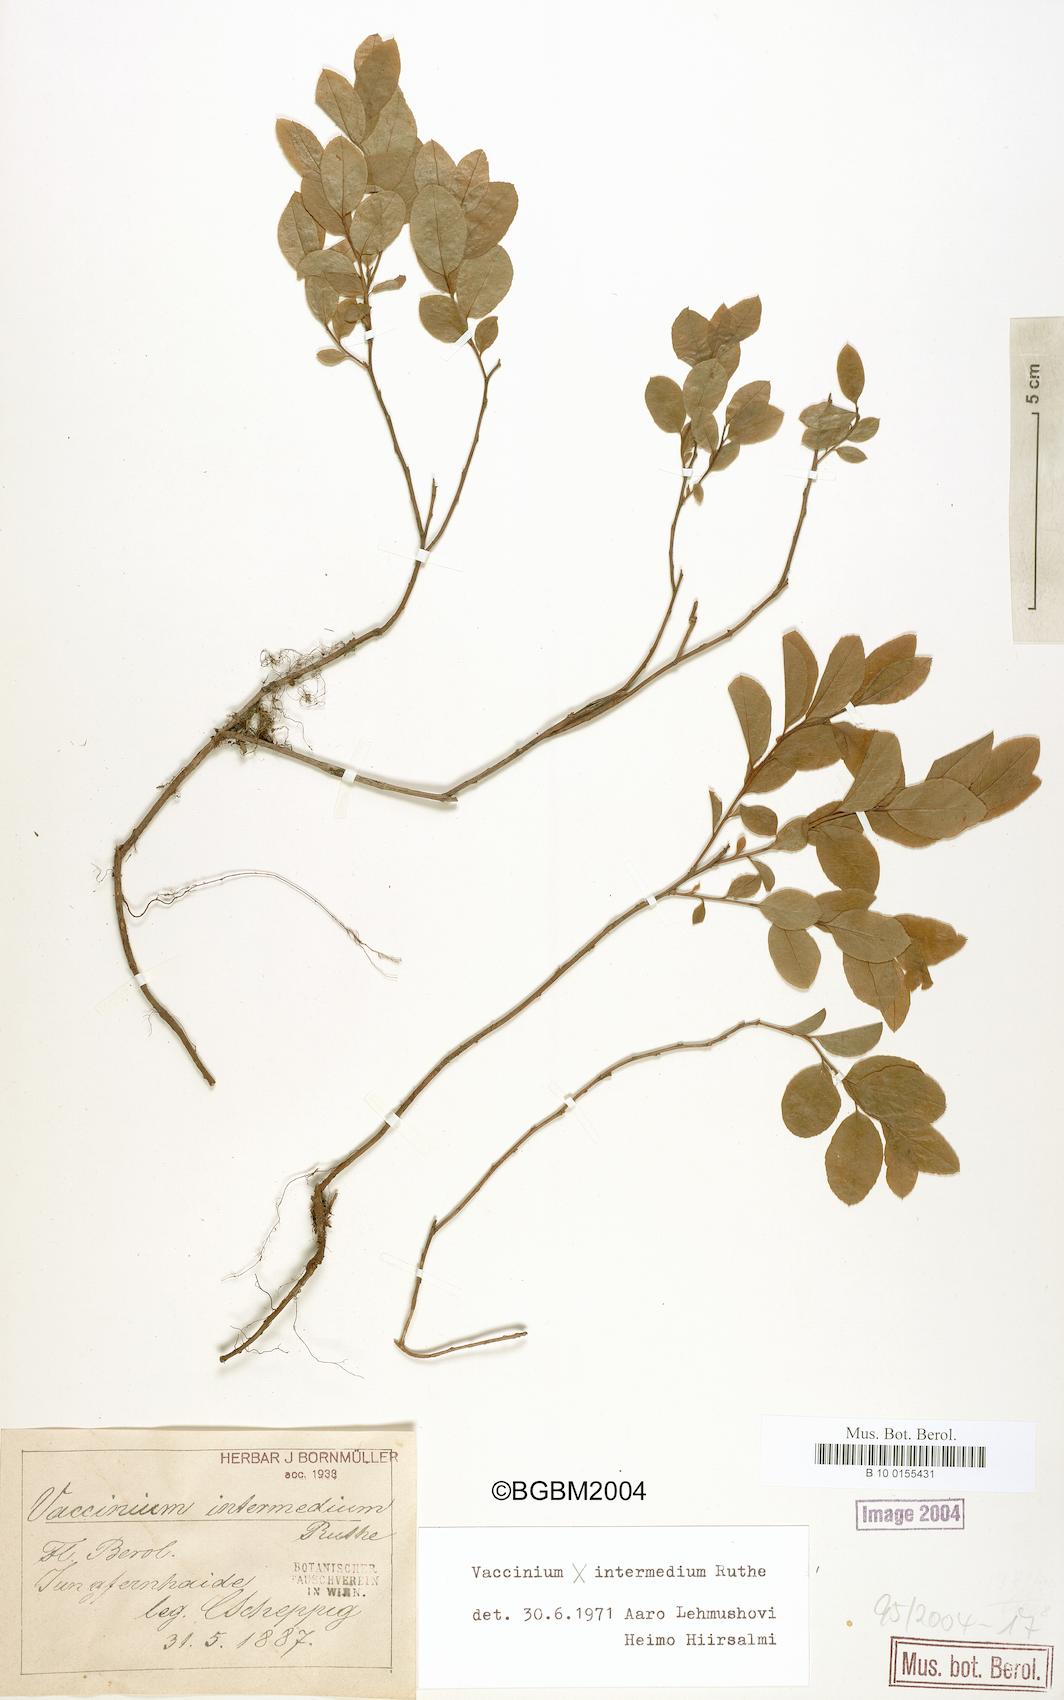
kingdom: Plantae
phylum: Tracheophyta
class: Magnoliopsida
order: Ericales
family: Ericaceae
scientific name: Ericaceae
